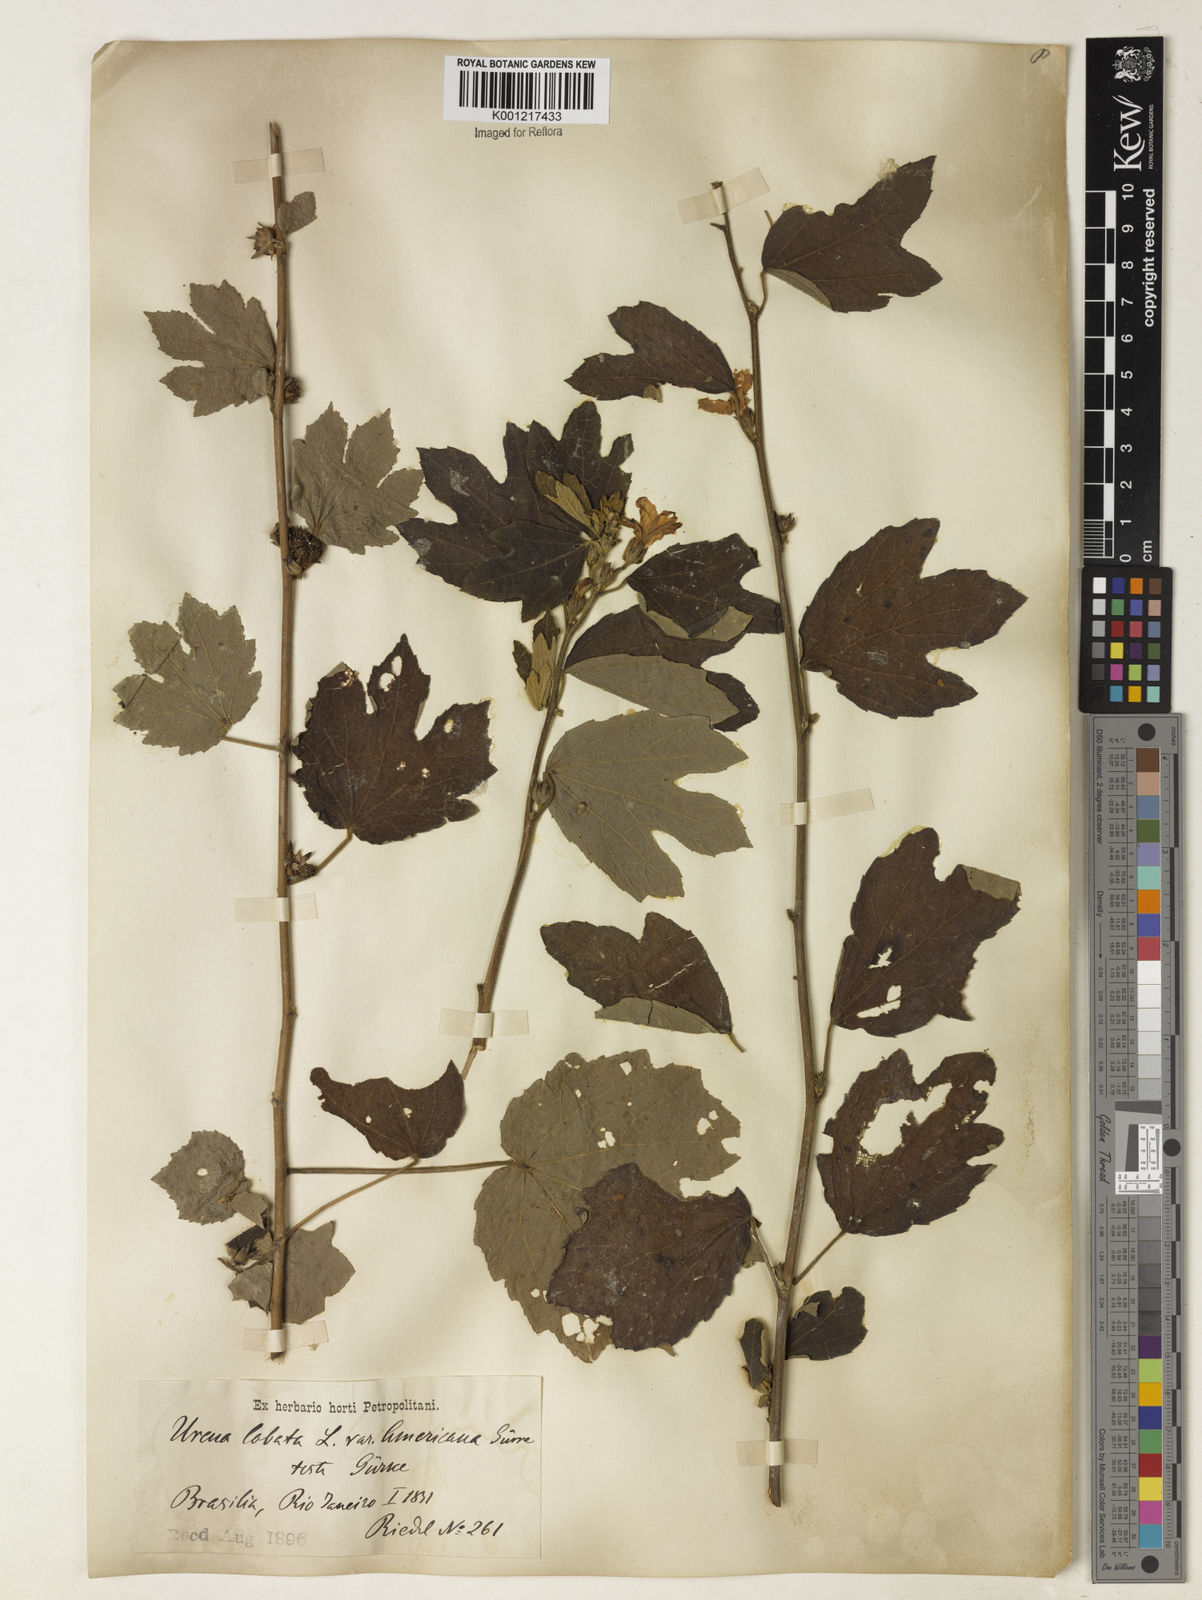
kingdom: Plantae
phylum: Tracheophyta
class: Magnoliopsida
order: Malvales
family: Malvaceae
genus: Urena
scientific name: Urena lobata
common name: Caesarweed
